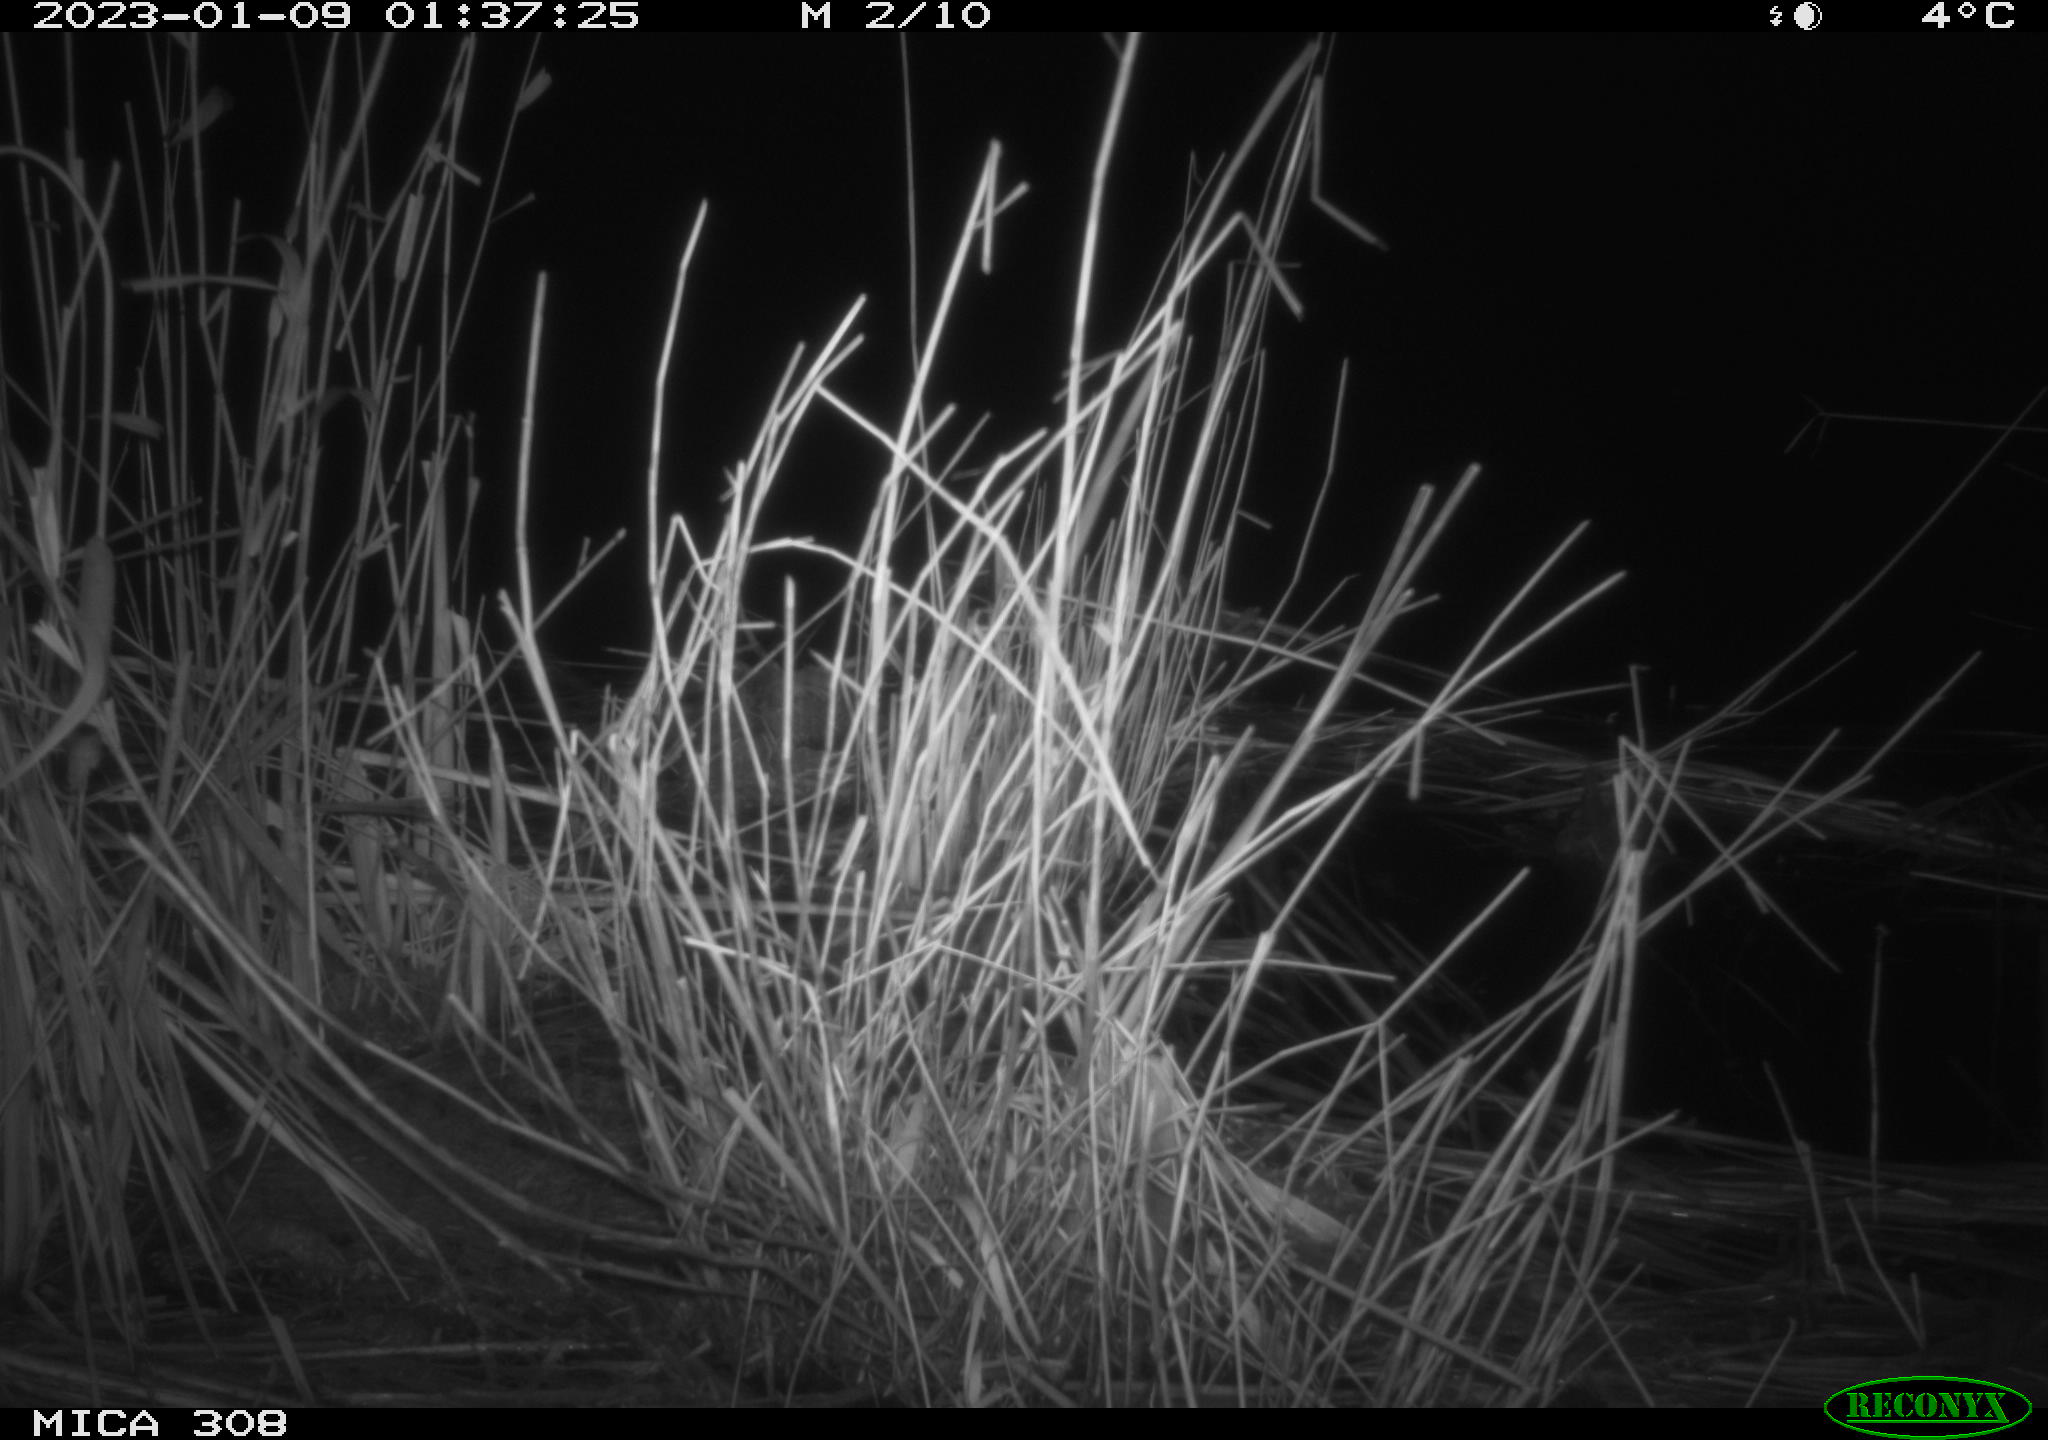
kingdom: Animalia
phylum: Chordata
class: Mammalia
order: Rodentia
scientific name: Rodentia
